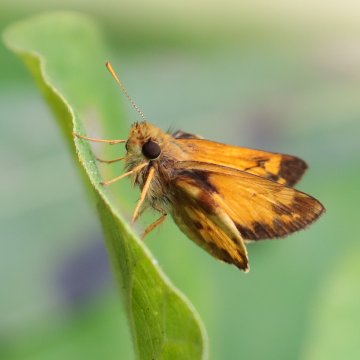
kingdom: Animalia
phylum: Arthropoda
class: Insecta
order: Lepidoptera
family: Hesperiidae
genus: Lon
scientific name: Lon zabulon
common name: Zabulon Skipper
